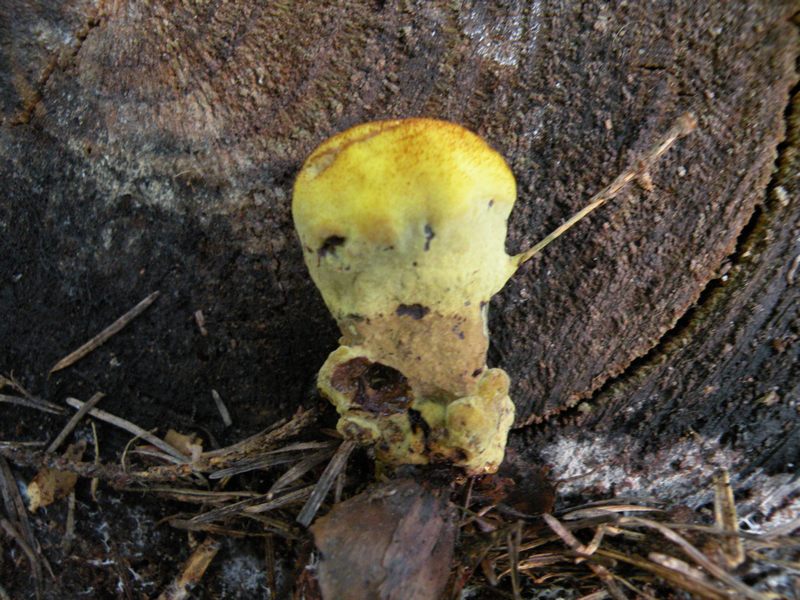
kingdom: Fungi
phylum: Basidiomycota
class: Agaricomycetes
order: Polyporales
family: Laetiporaceae
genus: Phaeolus
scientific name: Phaeolus schweinitzii
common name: brunporesvamp
